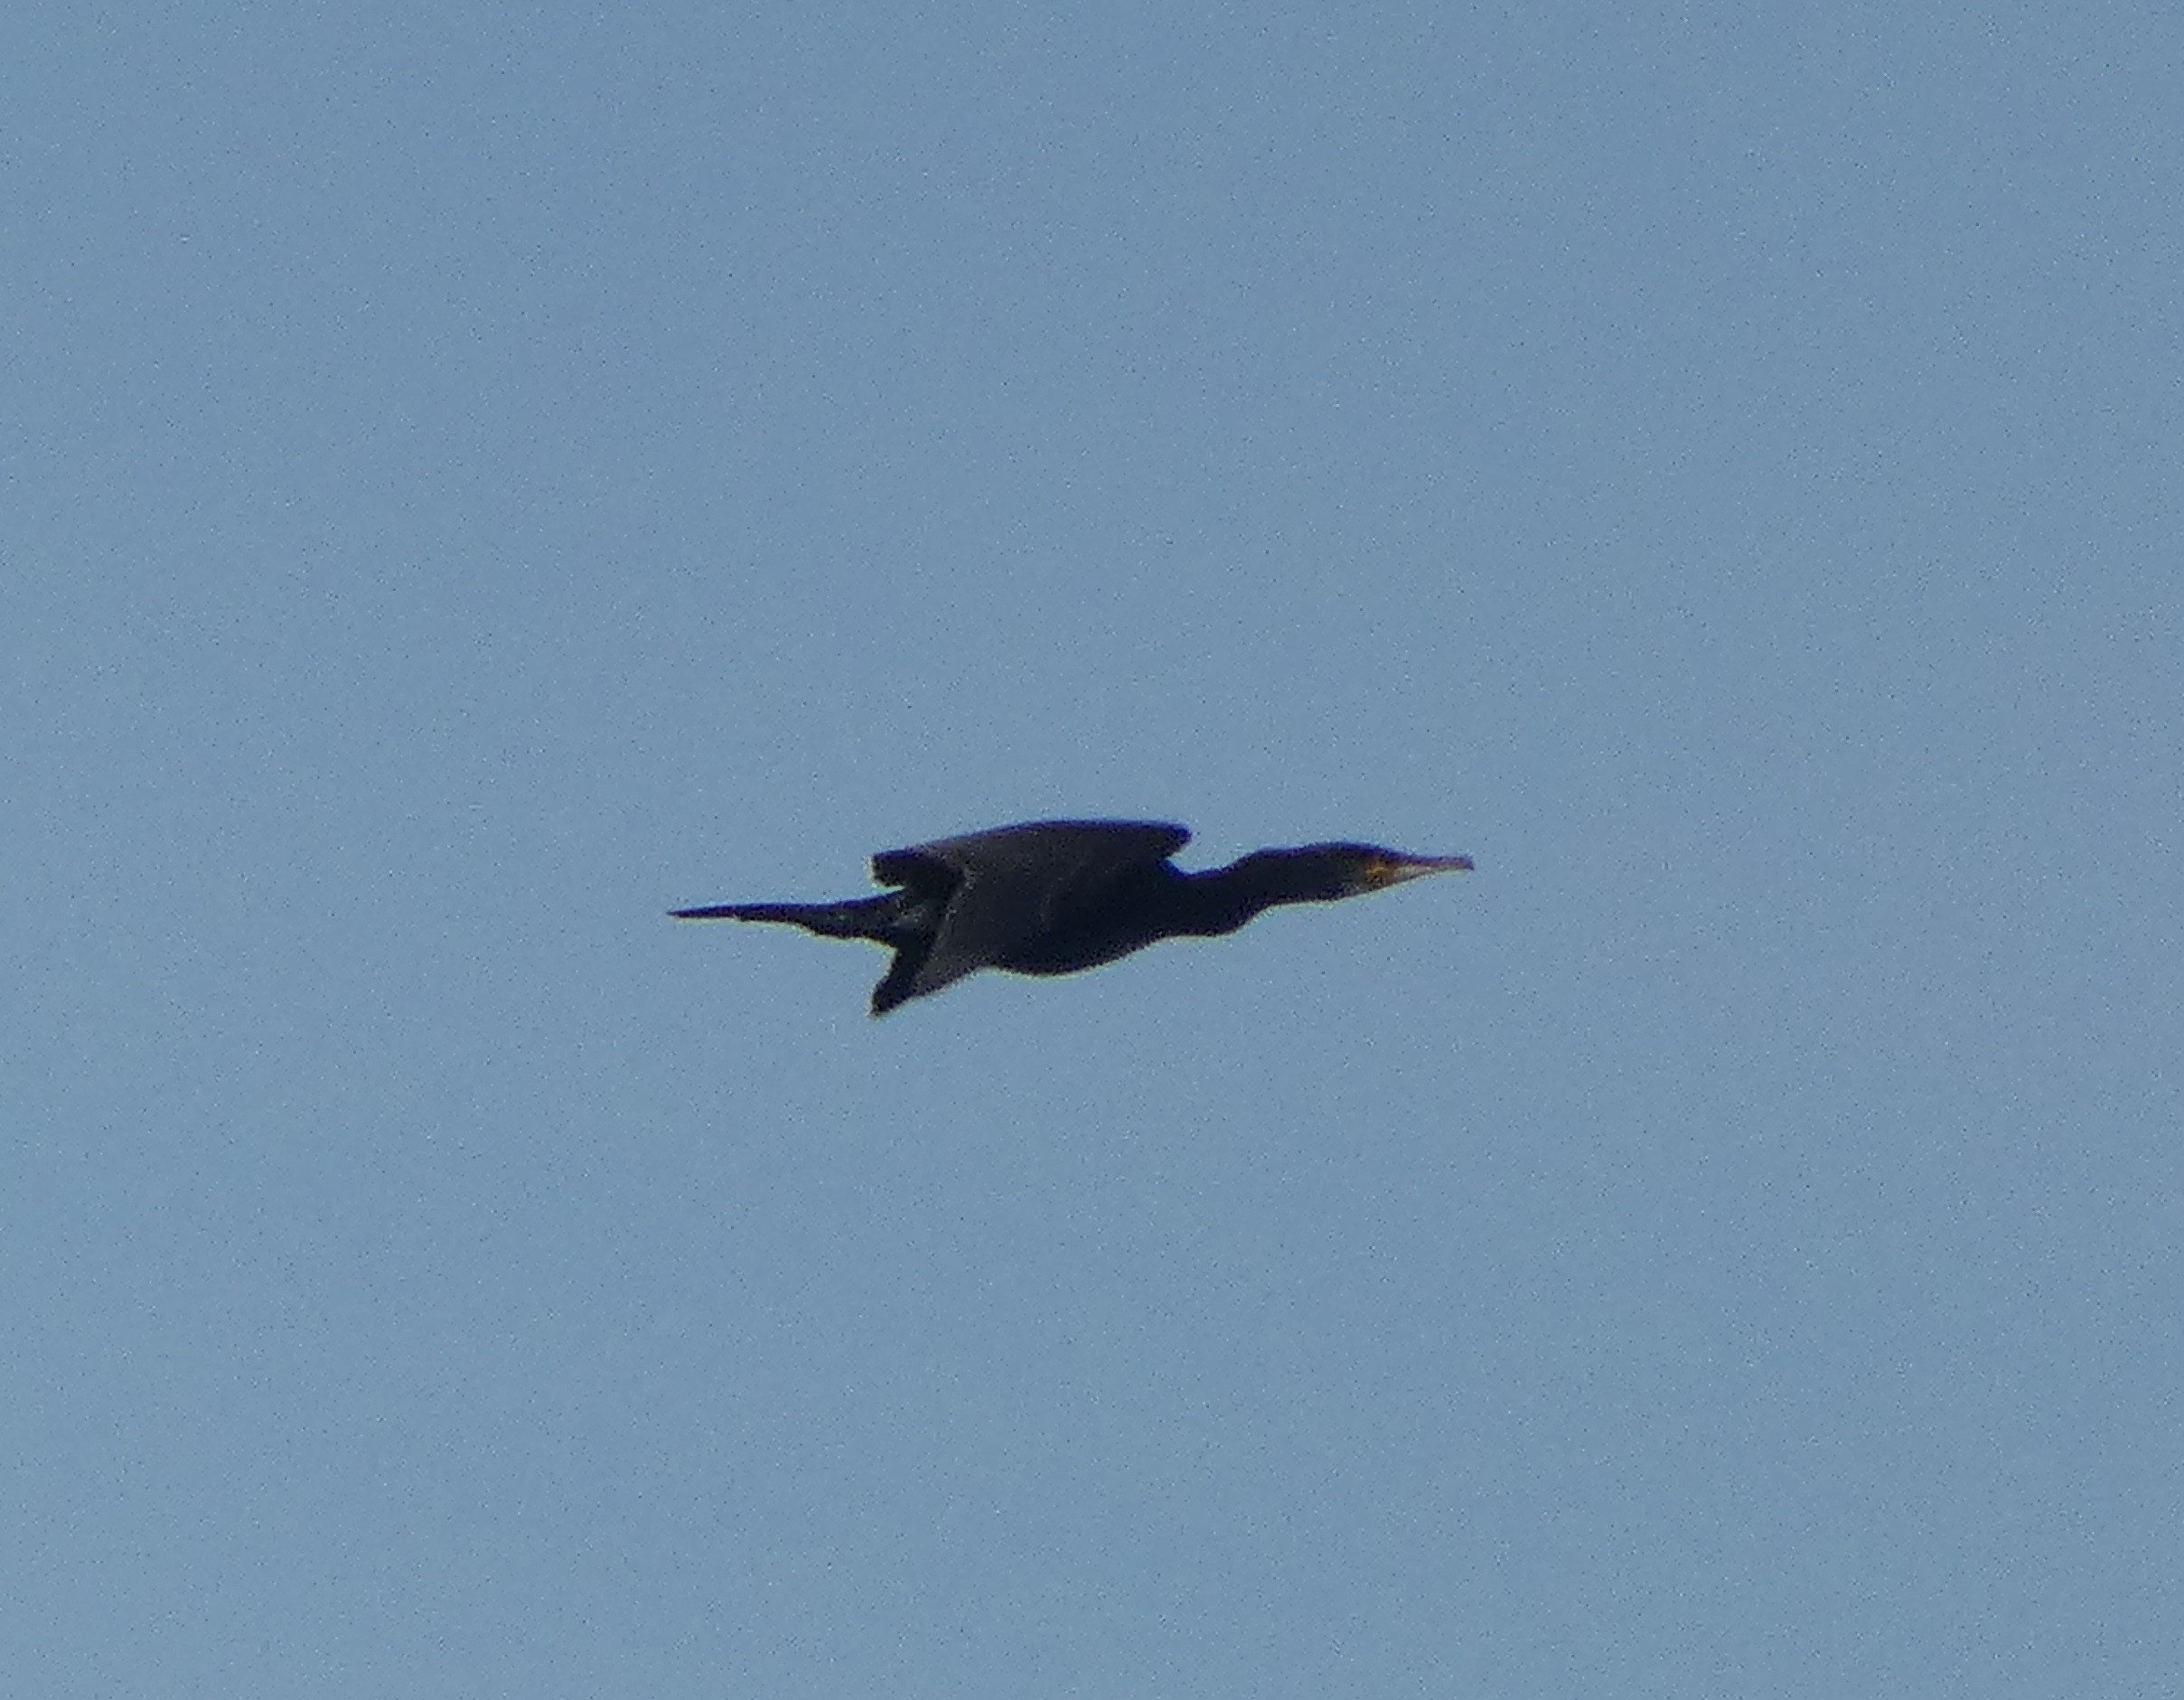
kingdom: Animalia
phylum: Chordata
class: Aves
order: Suliformes
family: Phalacrocoracidae
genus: Phalacrocorax
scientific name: Phalacrocorax carbo
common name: Skarv
